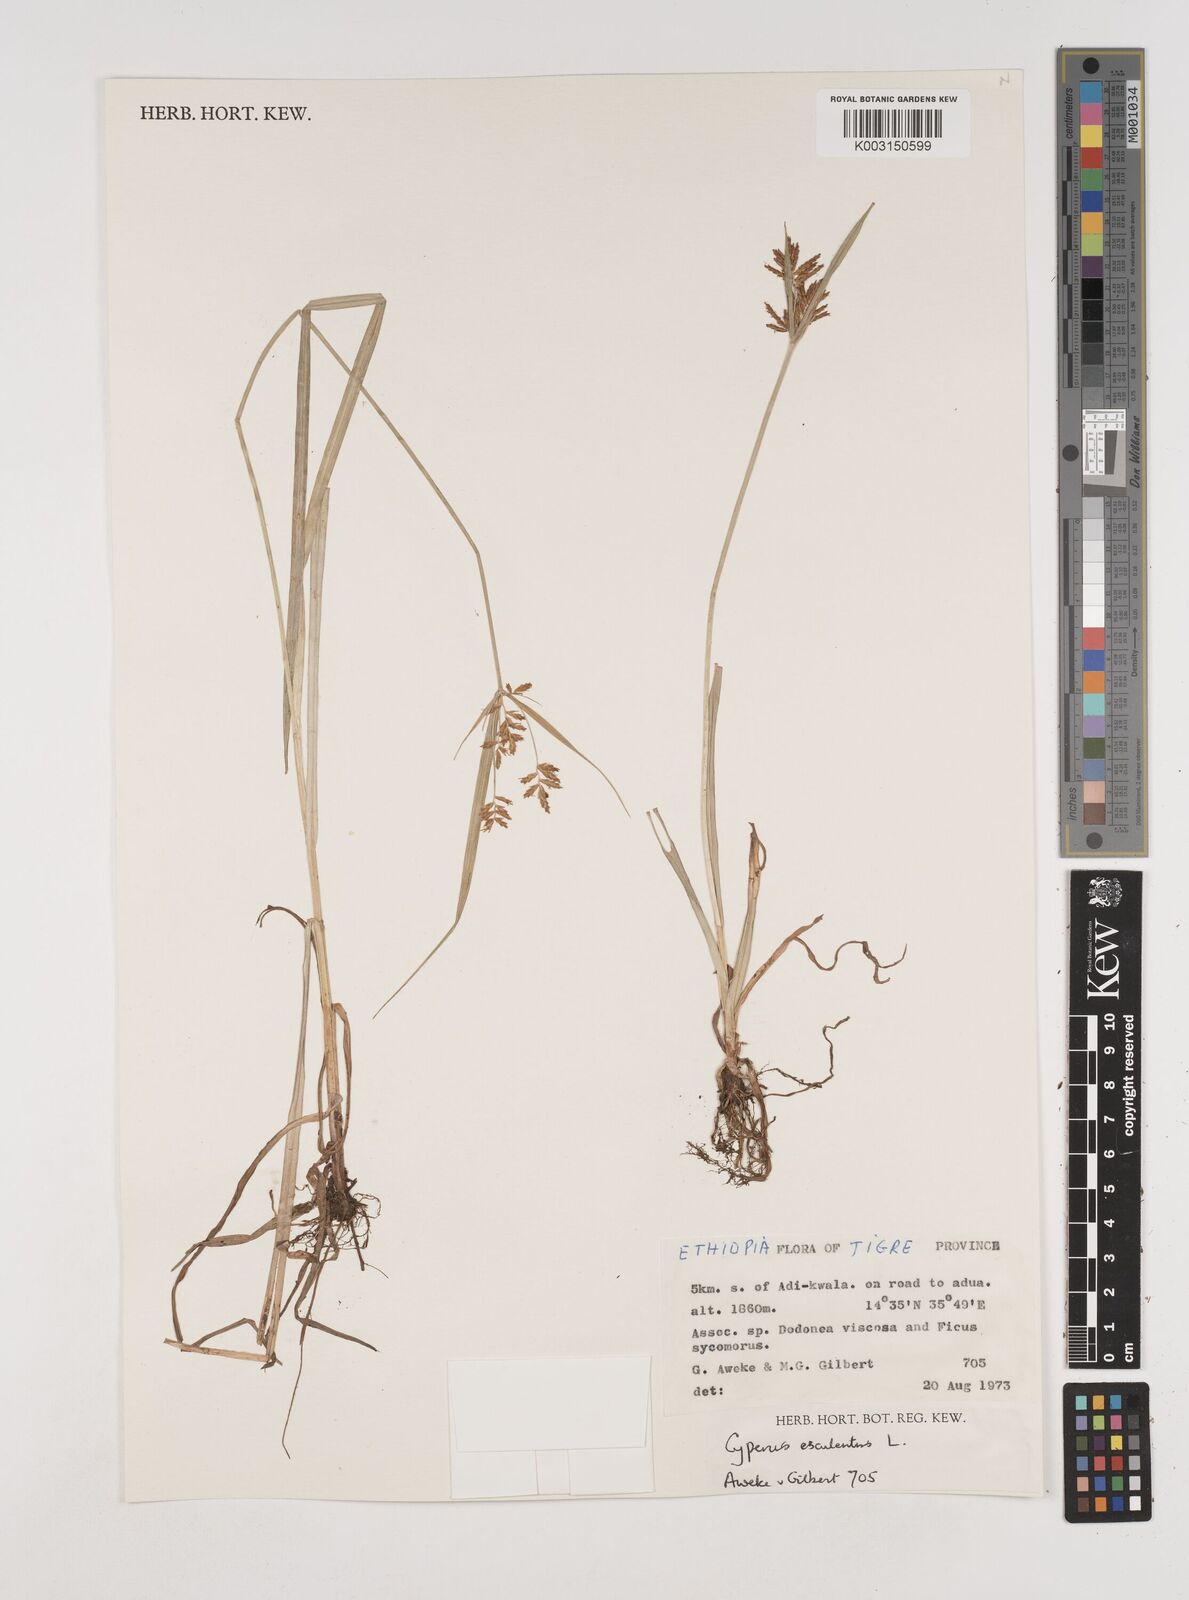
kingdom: Plantae
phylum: Tracheophyta
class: Liliopsida
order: Poales
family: Cyperaceae
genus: Cyperus
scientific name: Cyperus esculentus
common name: Yellow nutsedge
